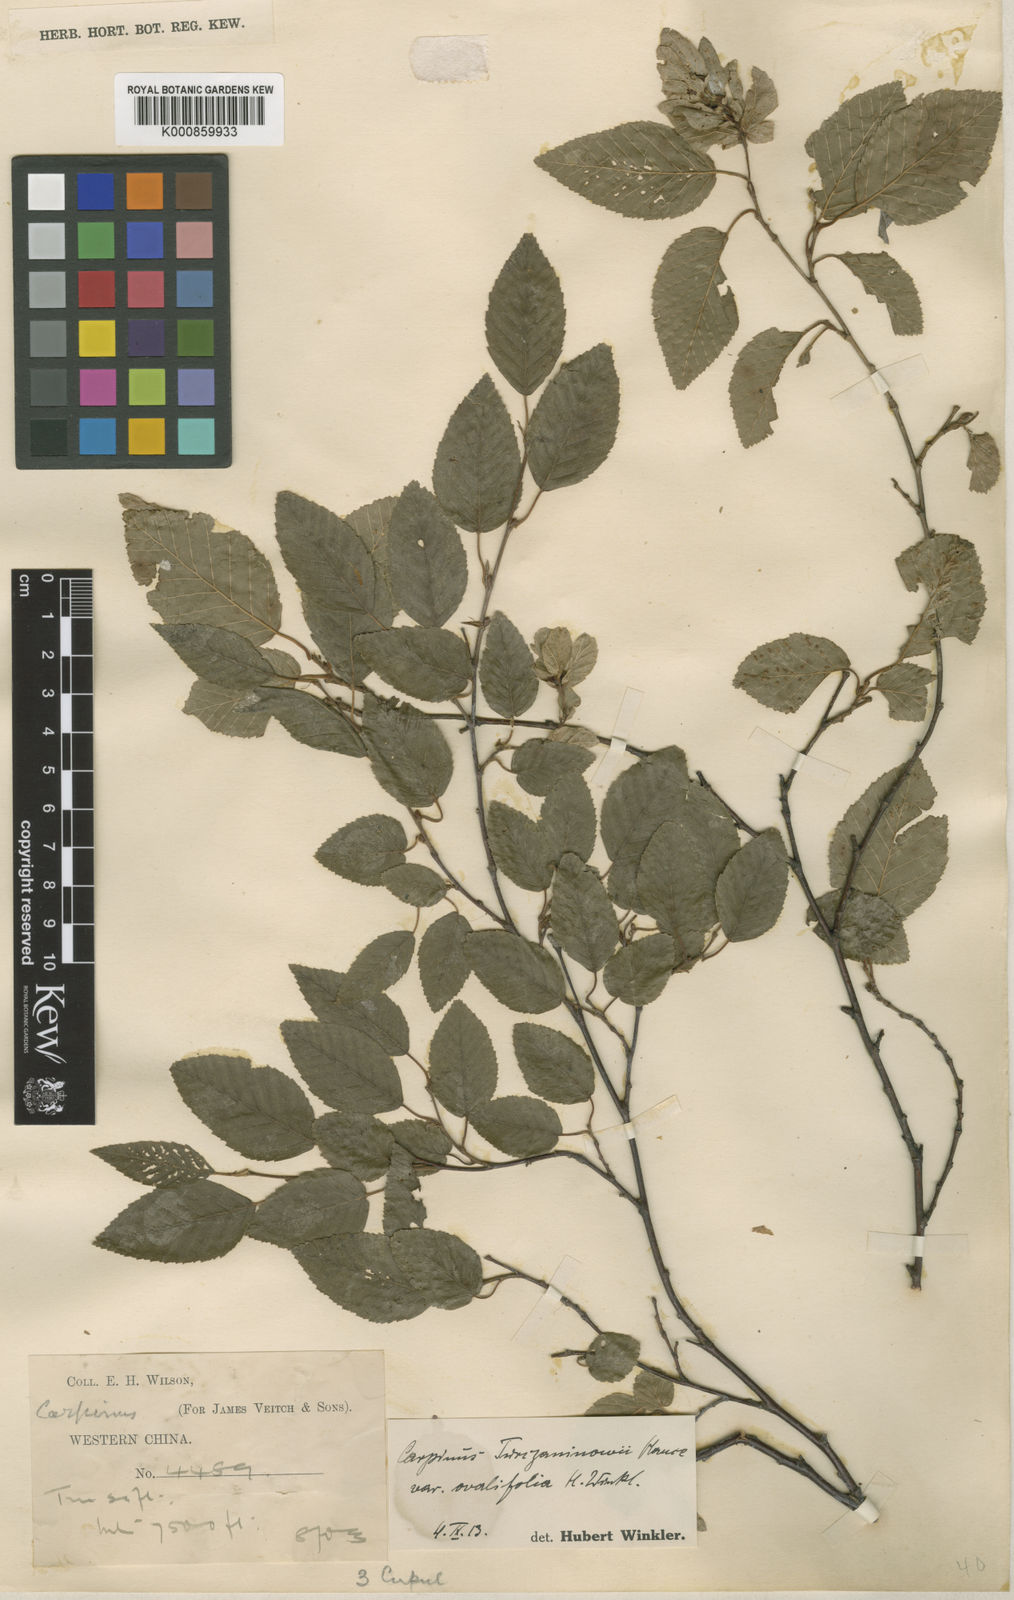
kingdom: Plantae
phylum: Tracheophyta
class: Magnoliopsida
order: Fagales
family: Betulaceae
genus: Carpinus
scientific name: Carpinus
